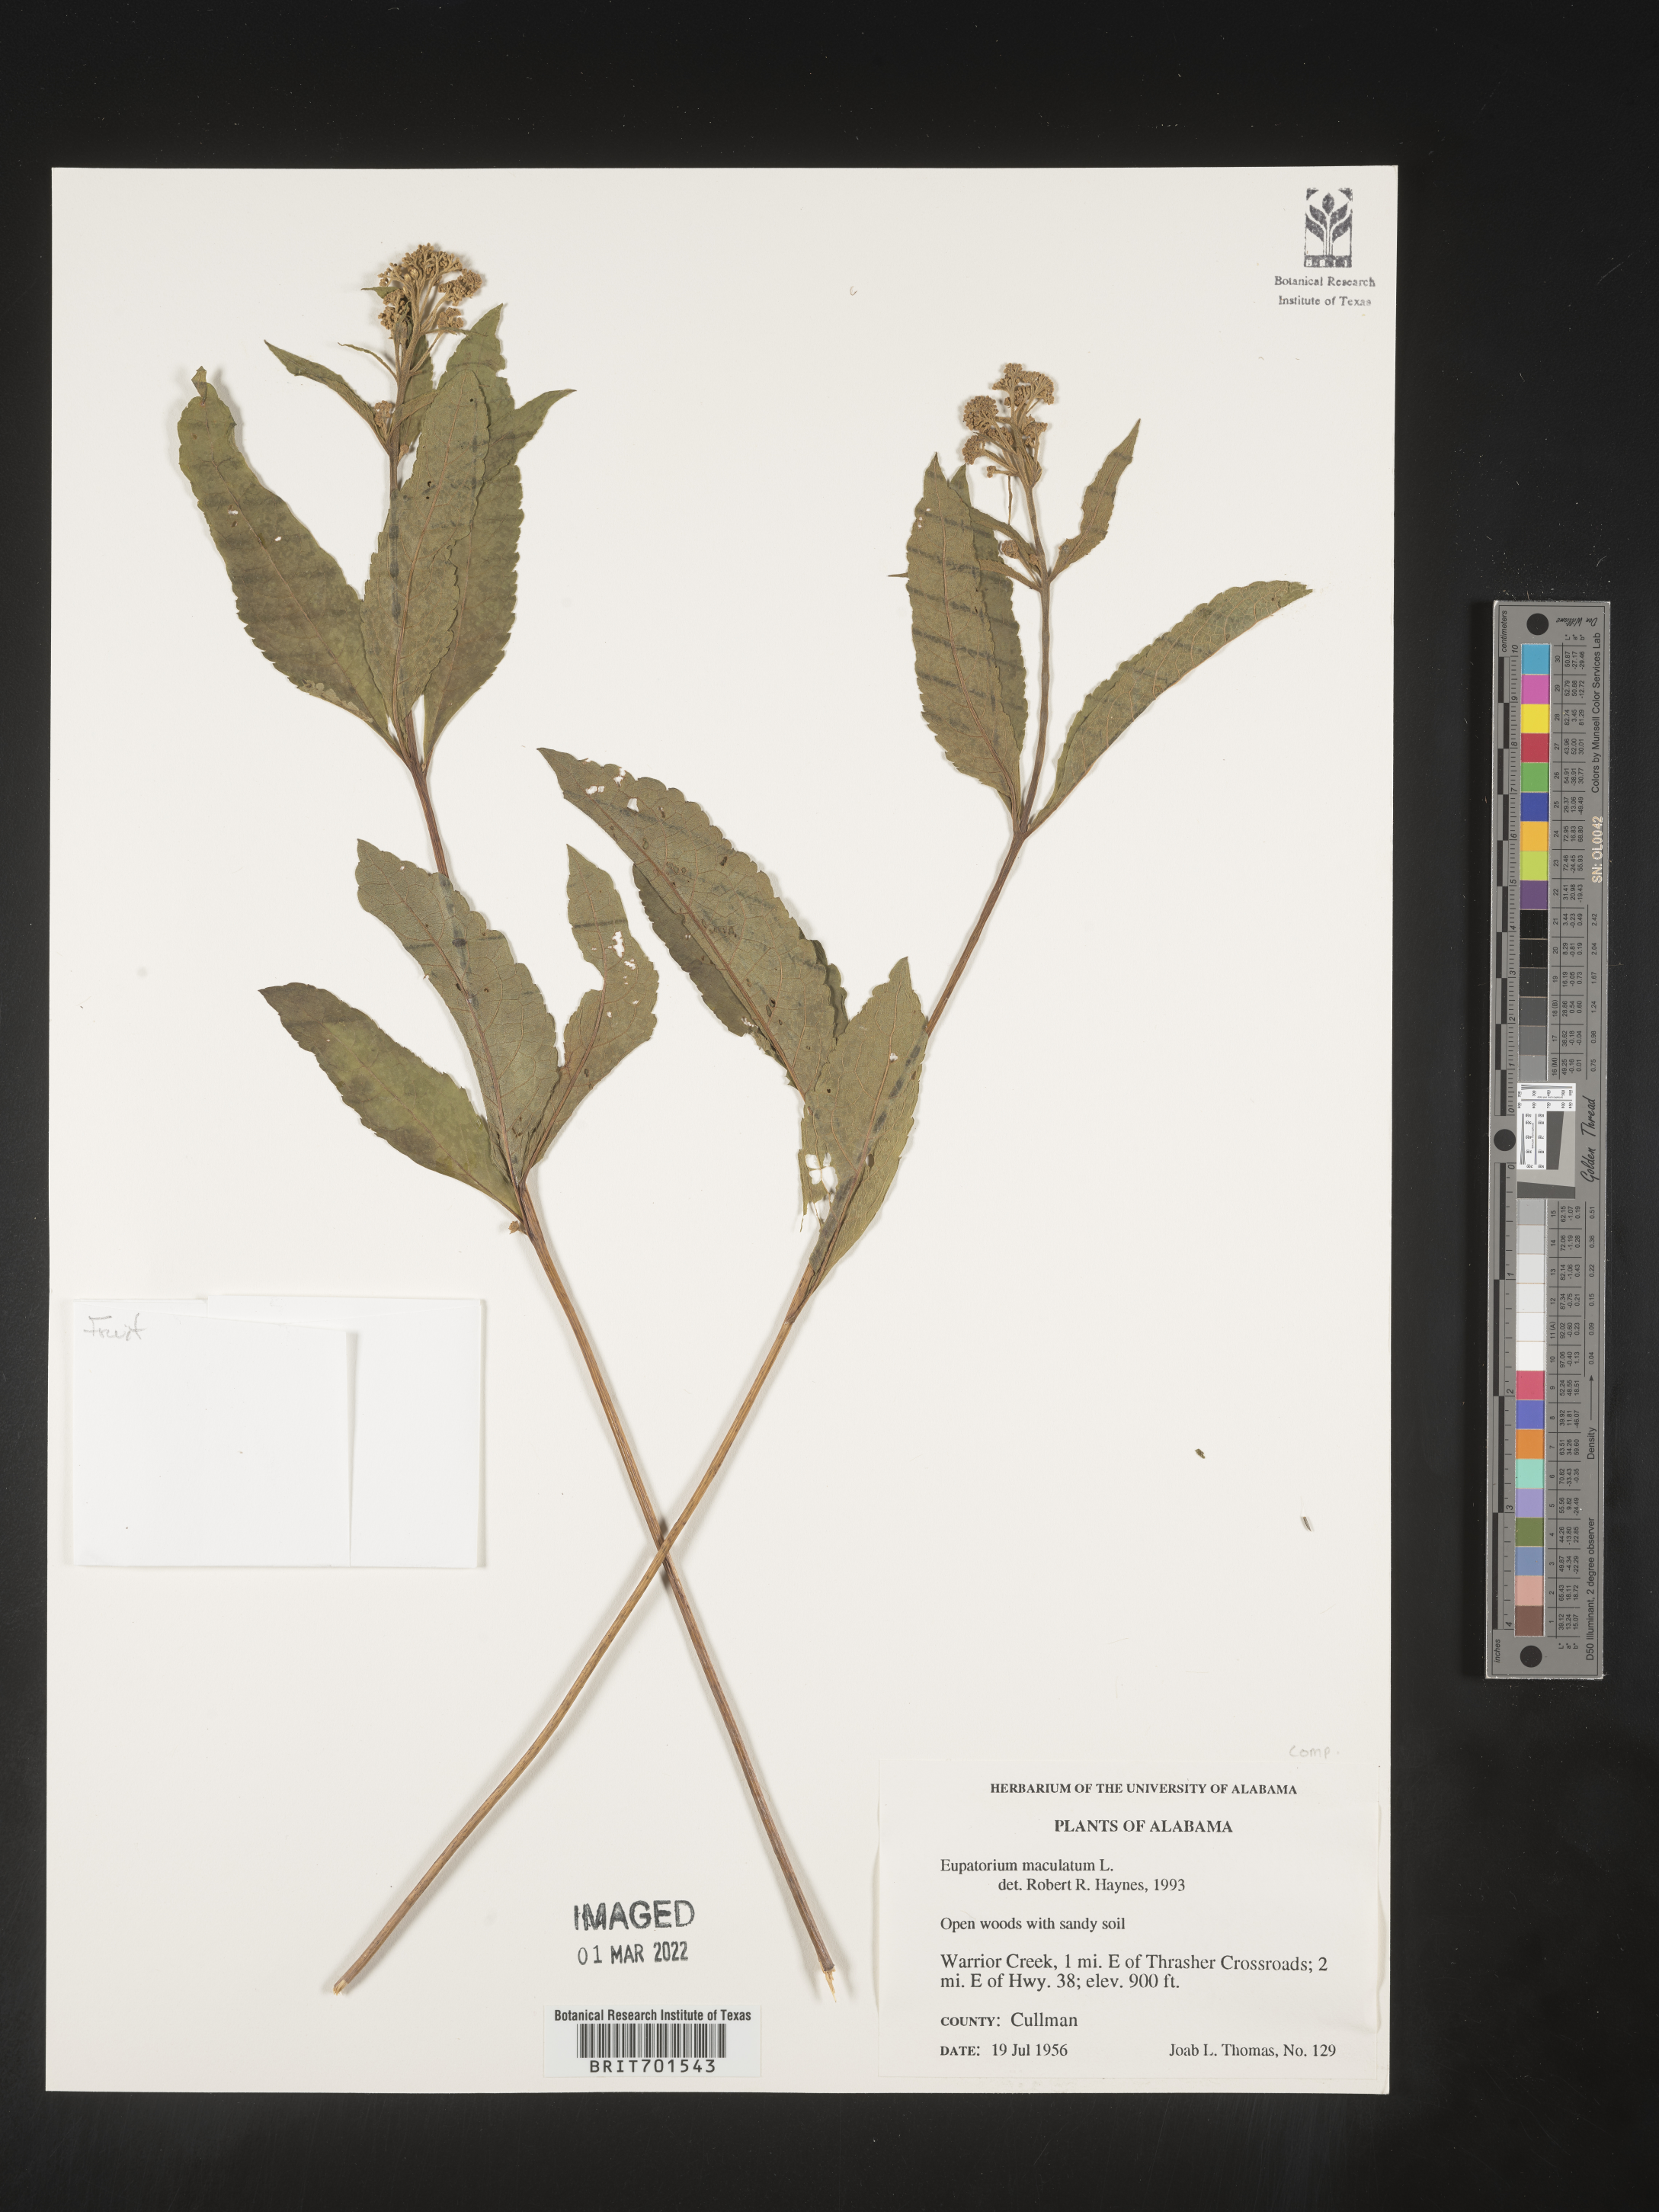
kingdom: Plantae
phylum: Tracheophyta
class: Magnoliopsida
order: Asterales
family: Asteraceae
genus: Eutrochium
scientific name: Eutrochium maculatum
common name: Spotted joe pye weed
